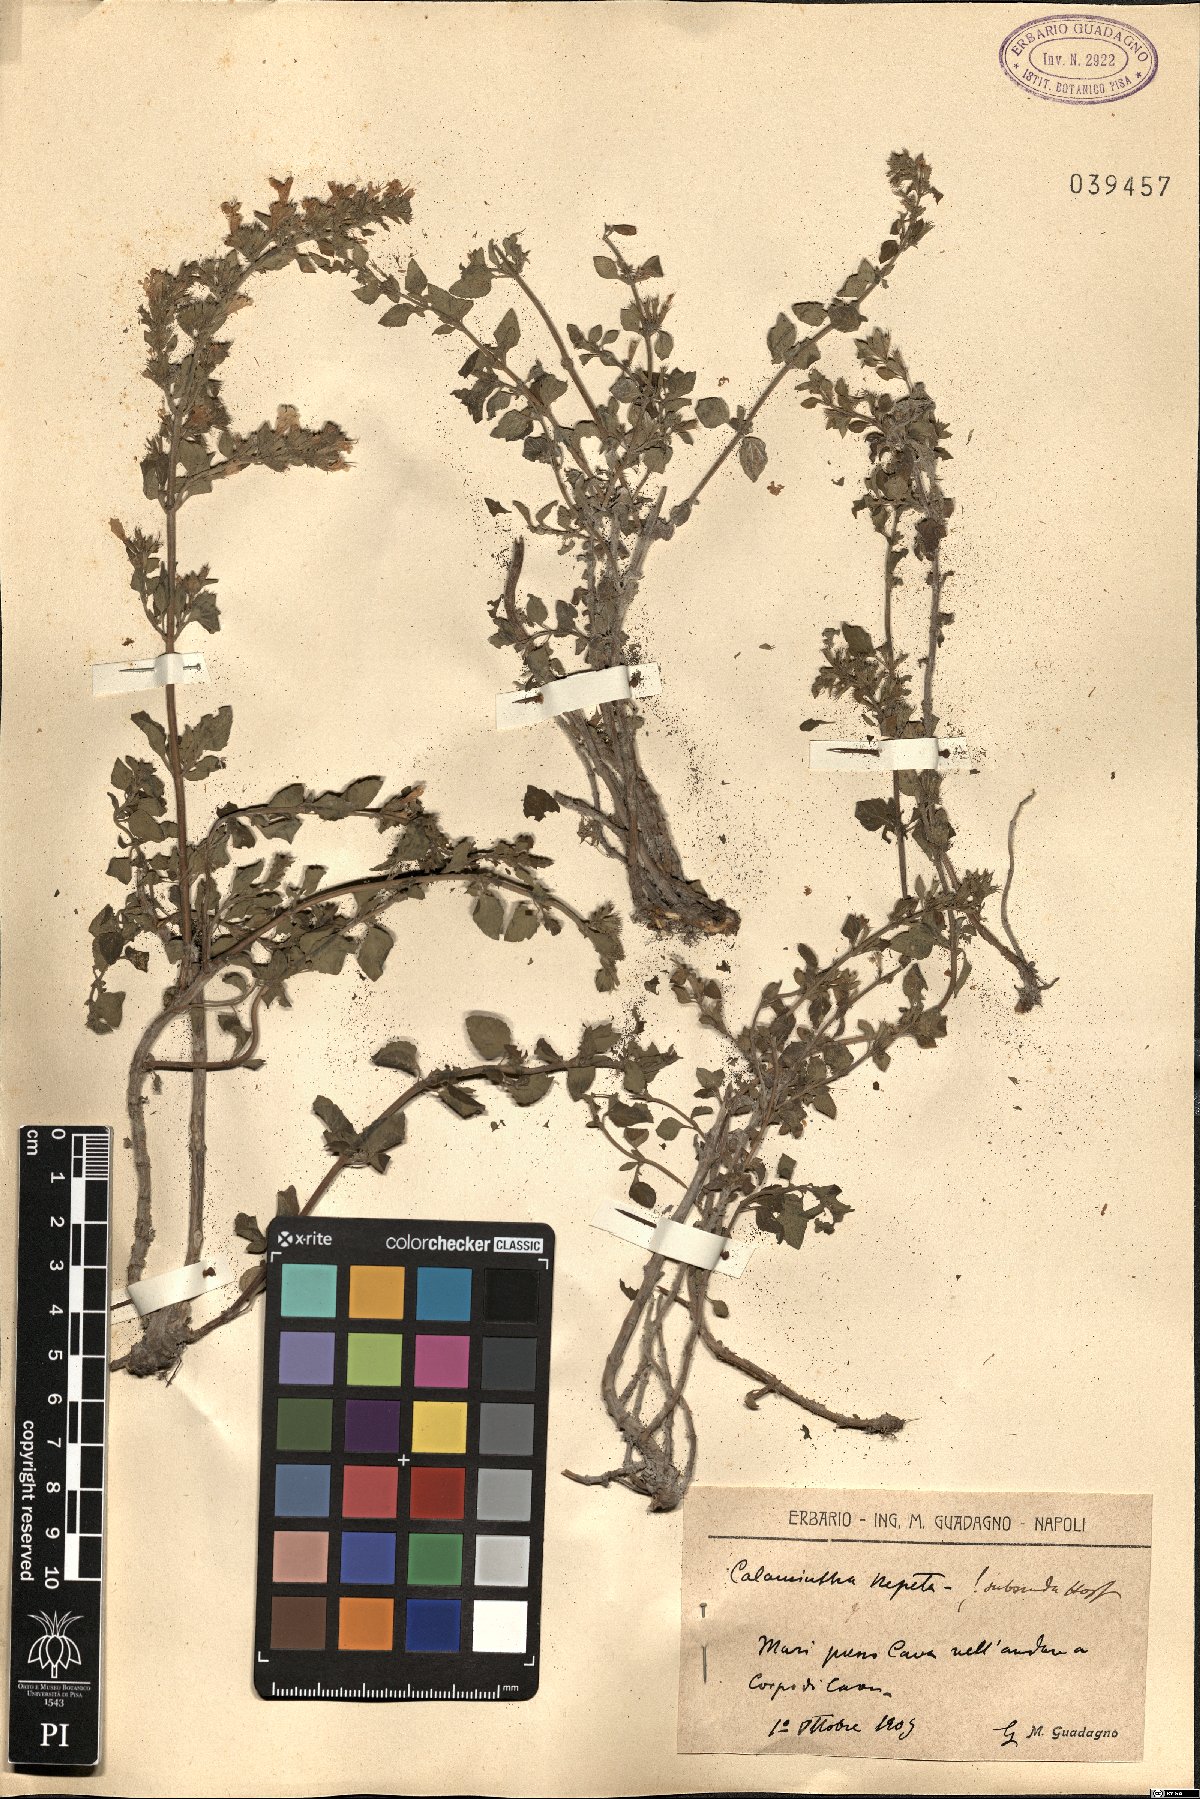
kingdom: Plantae
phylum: Tracheophyta
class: Magnoliopsida
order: Lamiales
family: Lamiaceae
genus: Clinopodium
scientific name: Clinopodium nepeta
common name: Lesser calamint
